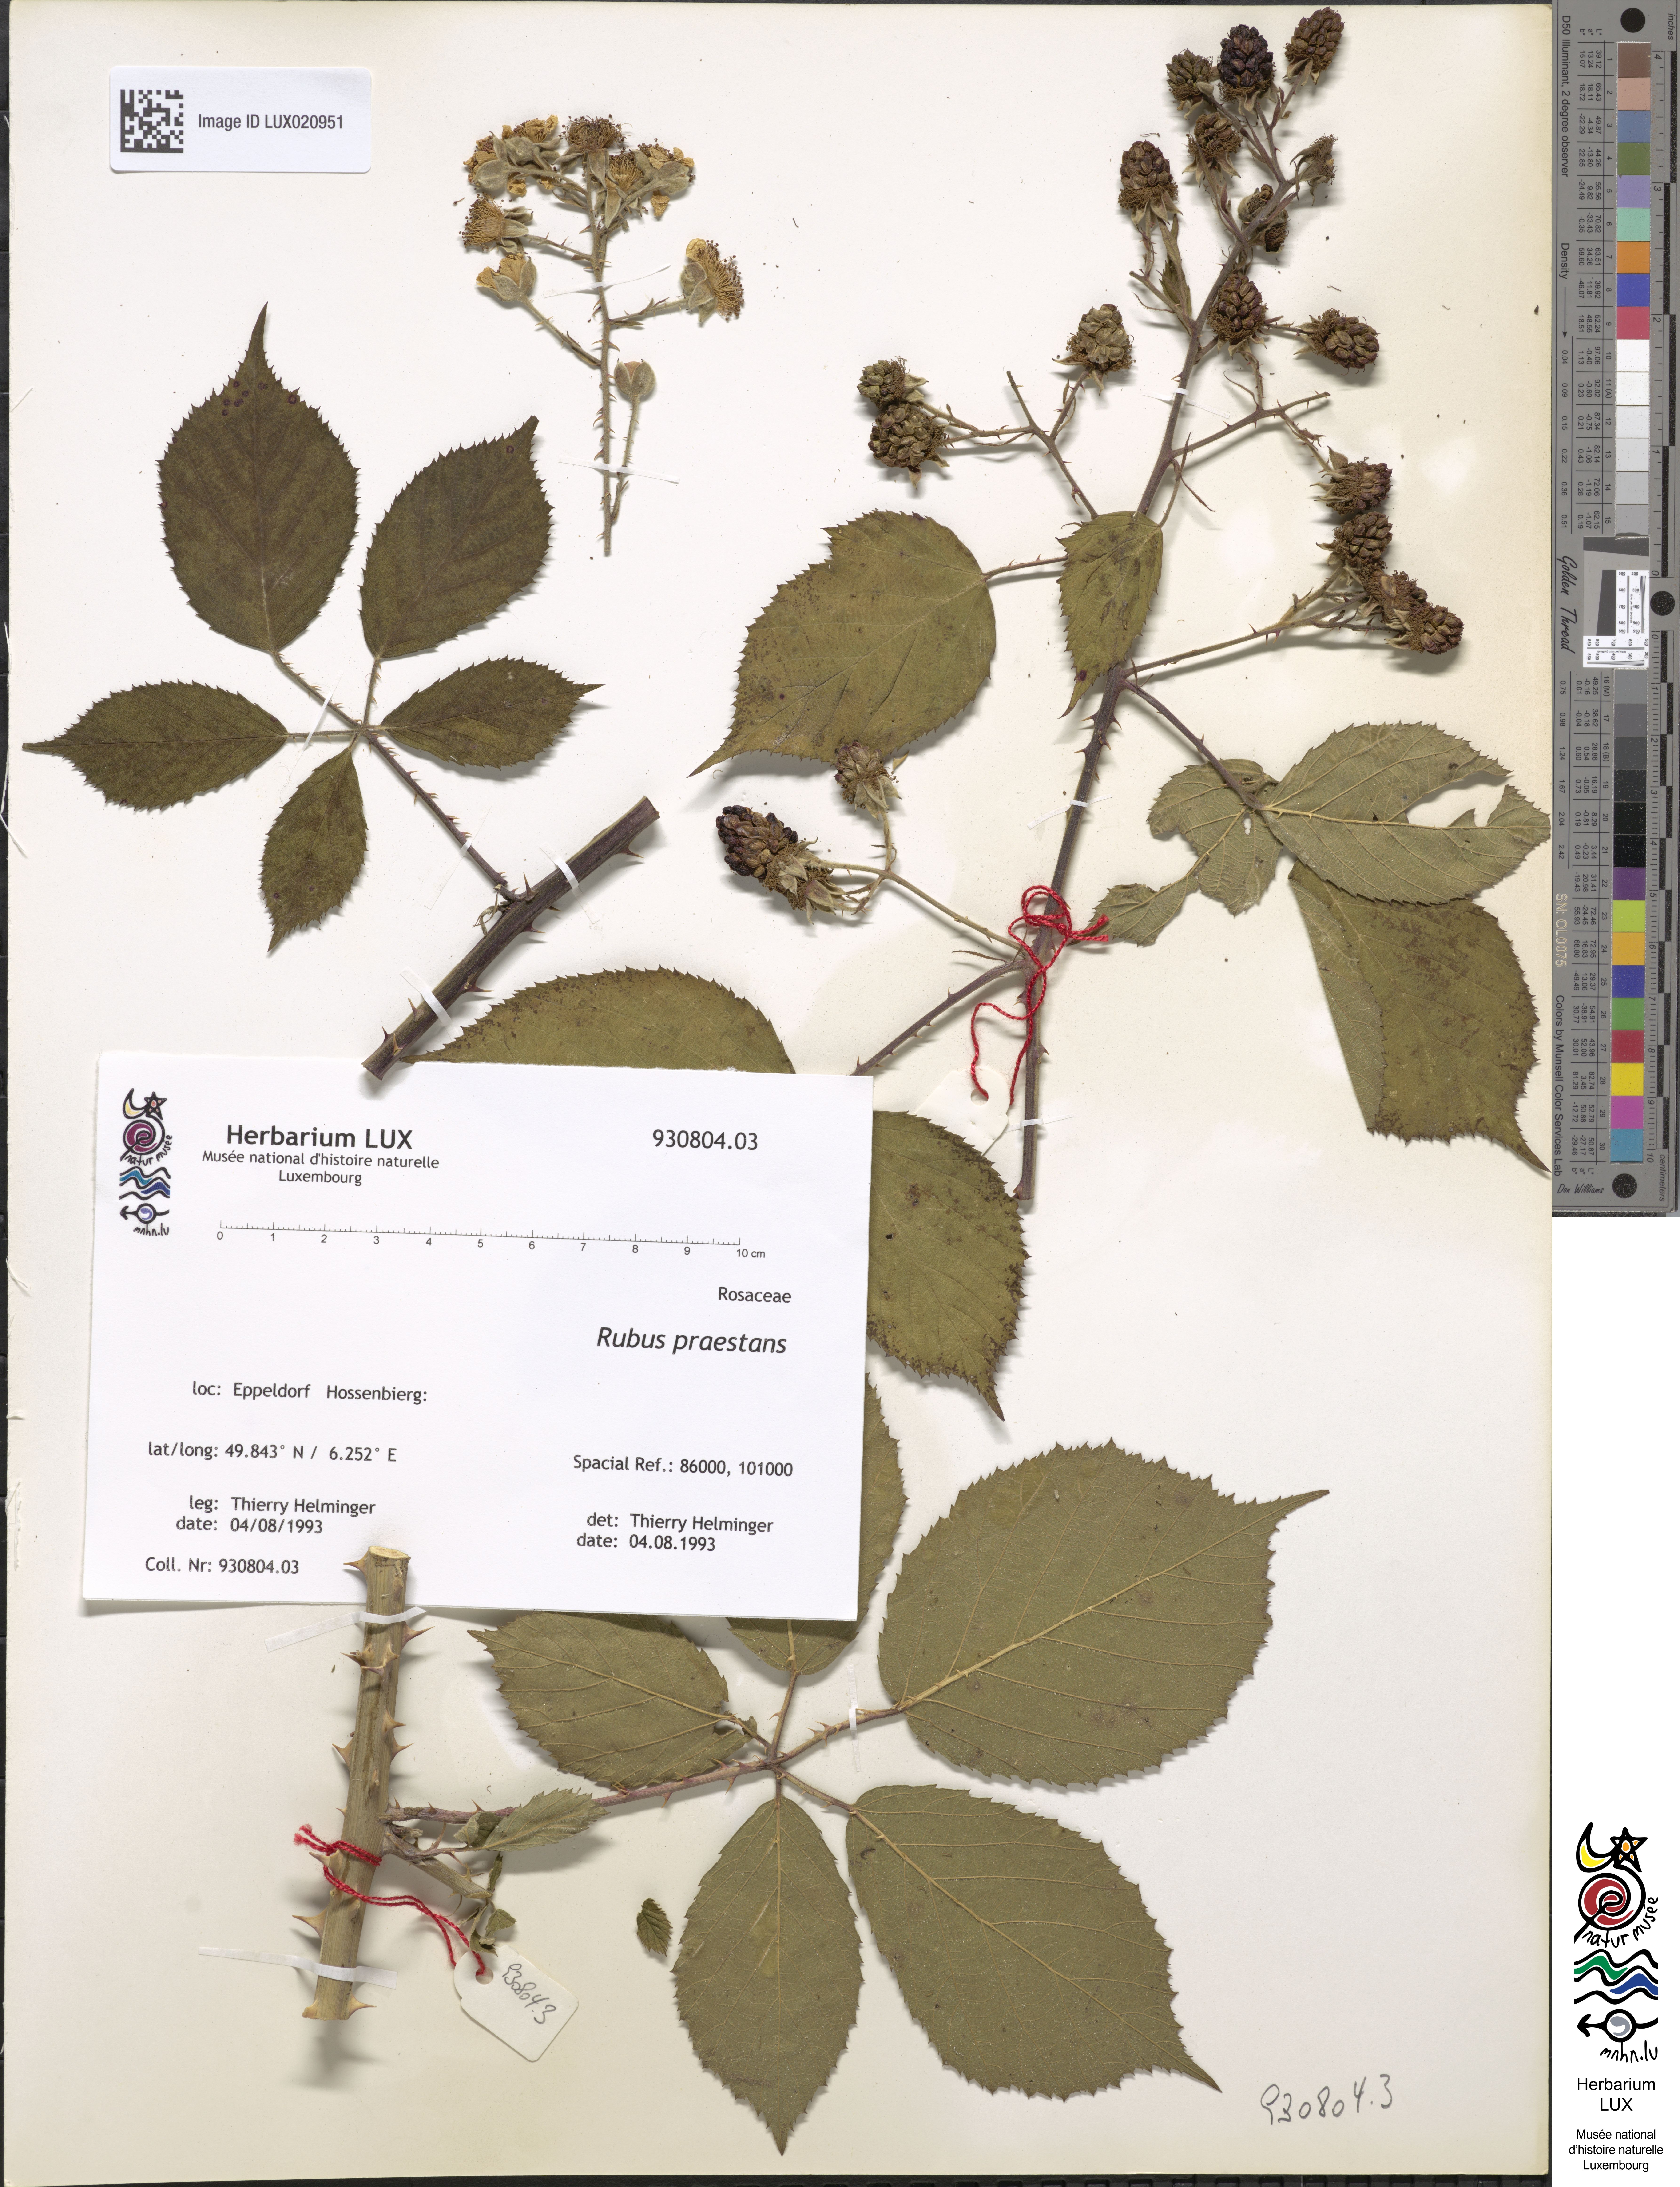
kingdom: Plantae
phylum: Tracheophyta
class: Magnoliopsida
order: Rosales
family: Rosaceae
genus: Rubus
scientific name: Rubus praestans
